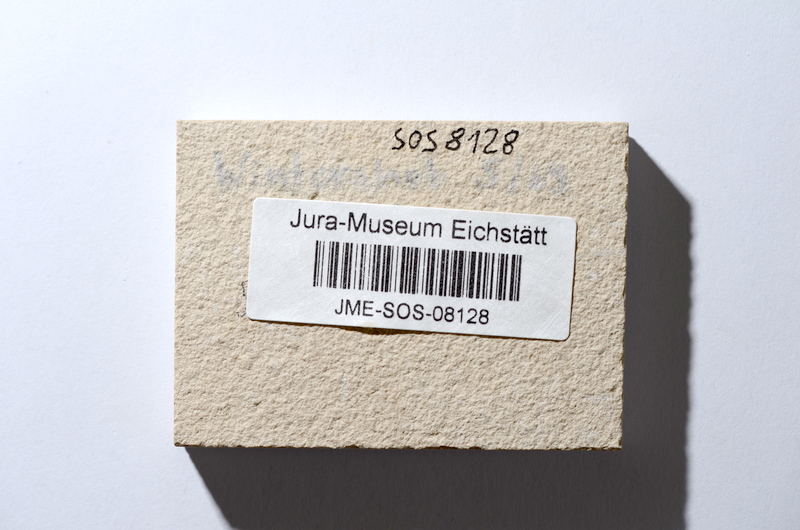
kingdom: Animalia
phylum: Chordata
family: Allothrissopidae
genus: Allothrissops
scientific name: Allothrissops mesogaster
